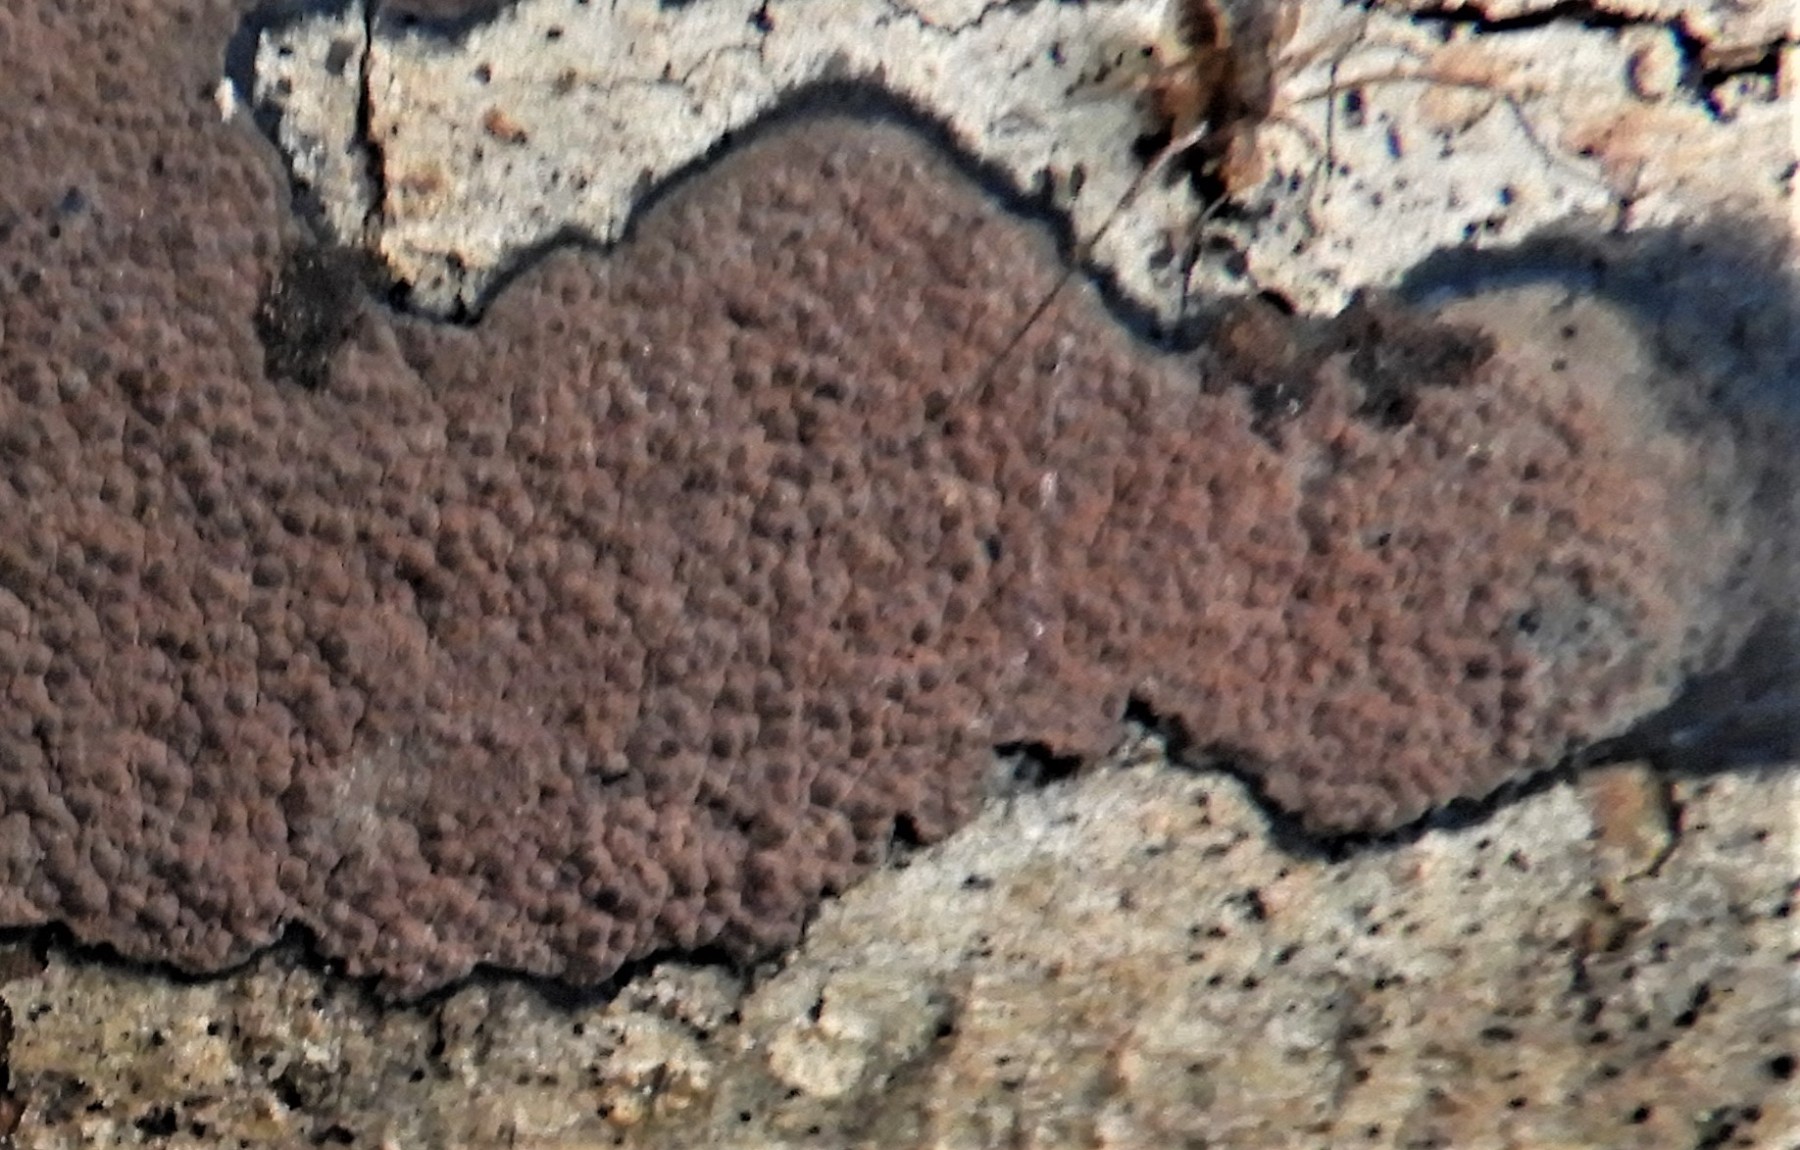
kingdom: Fungi
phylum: Ascomycota
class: Sordariomycetes
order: Xylariales
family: Hypoxylaceae
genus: Hypoxylon
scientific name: Hypoxylon petriniae
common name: nedsænket kulbær
